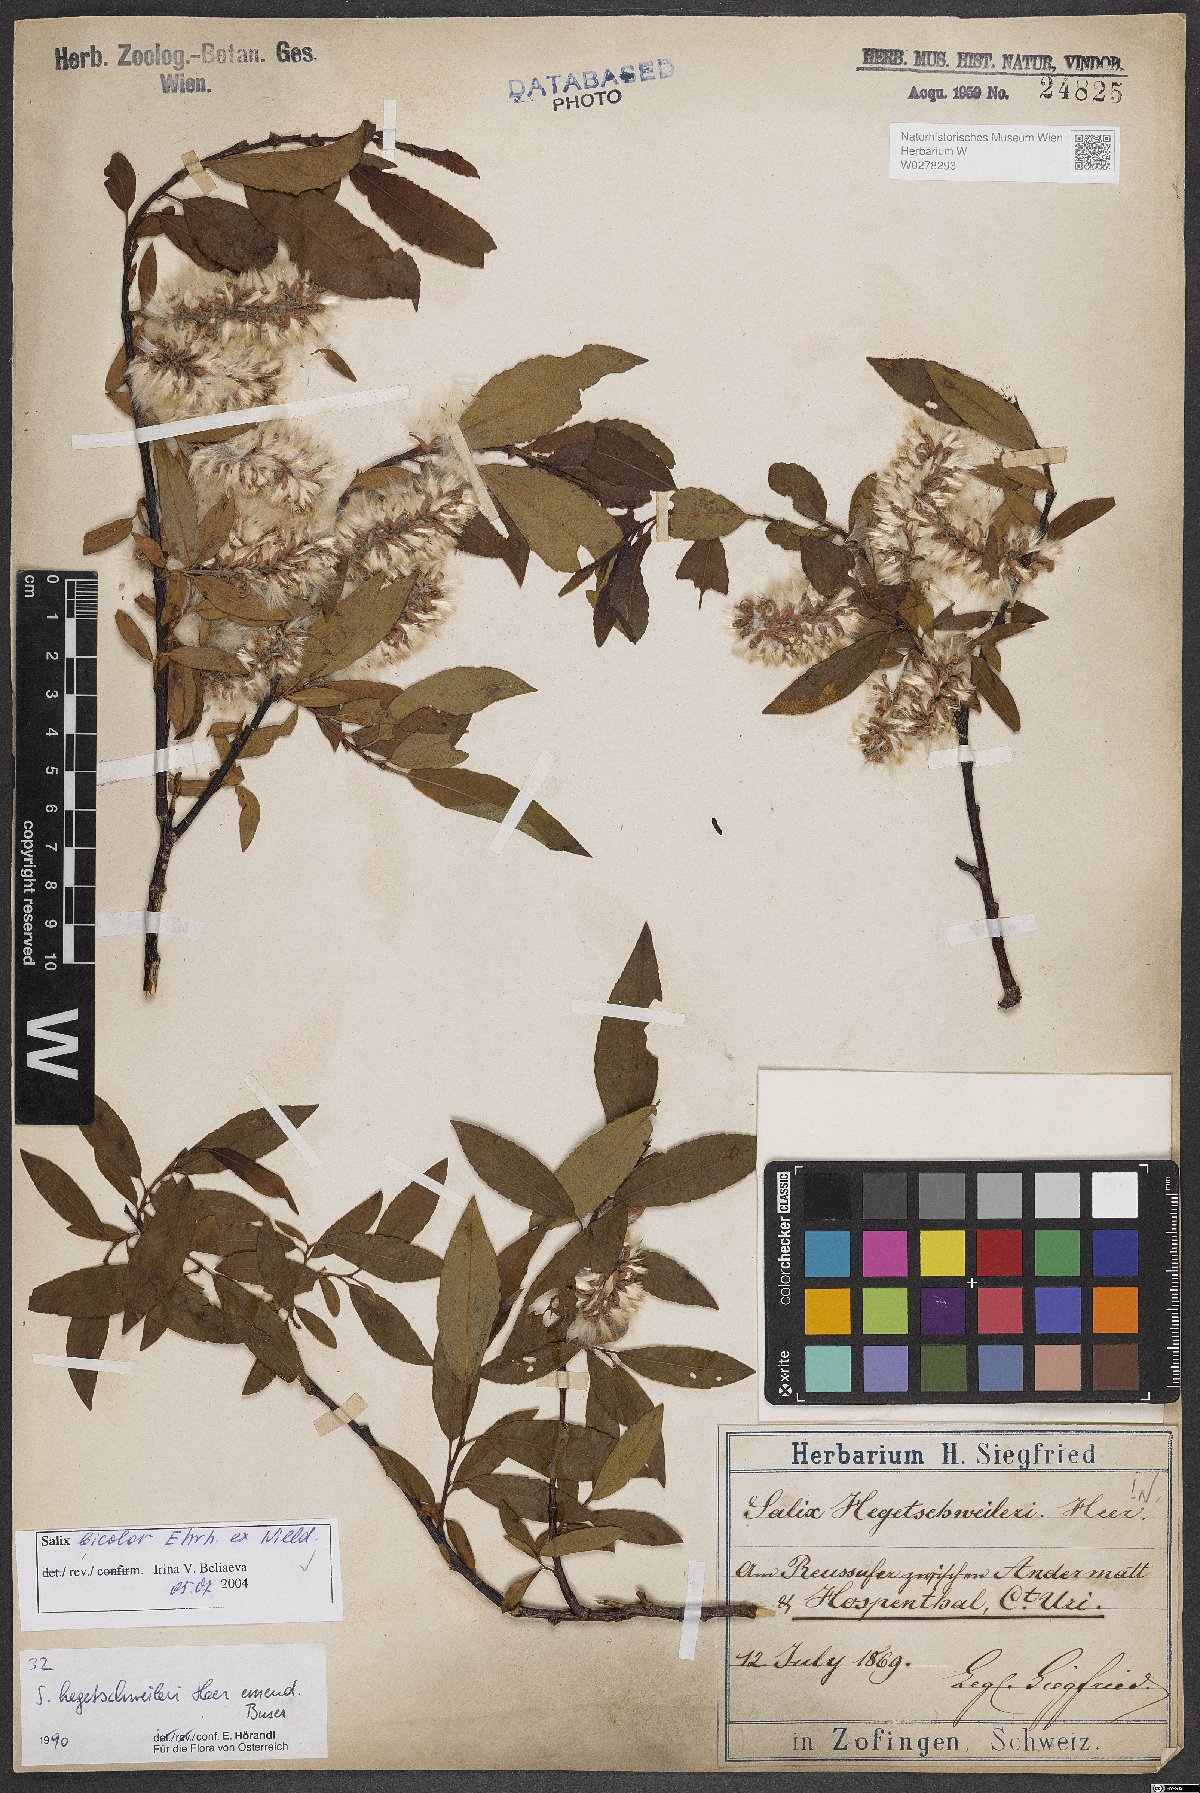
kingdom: Plantae
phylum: Tracheophyta
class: Magnoliopsida
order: Malpighiales
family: Salicaceae
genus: Salix
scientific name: Salix bicolor
